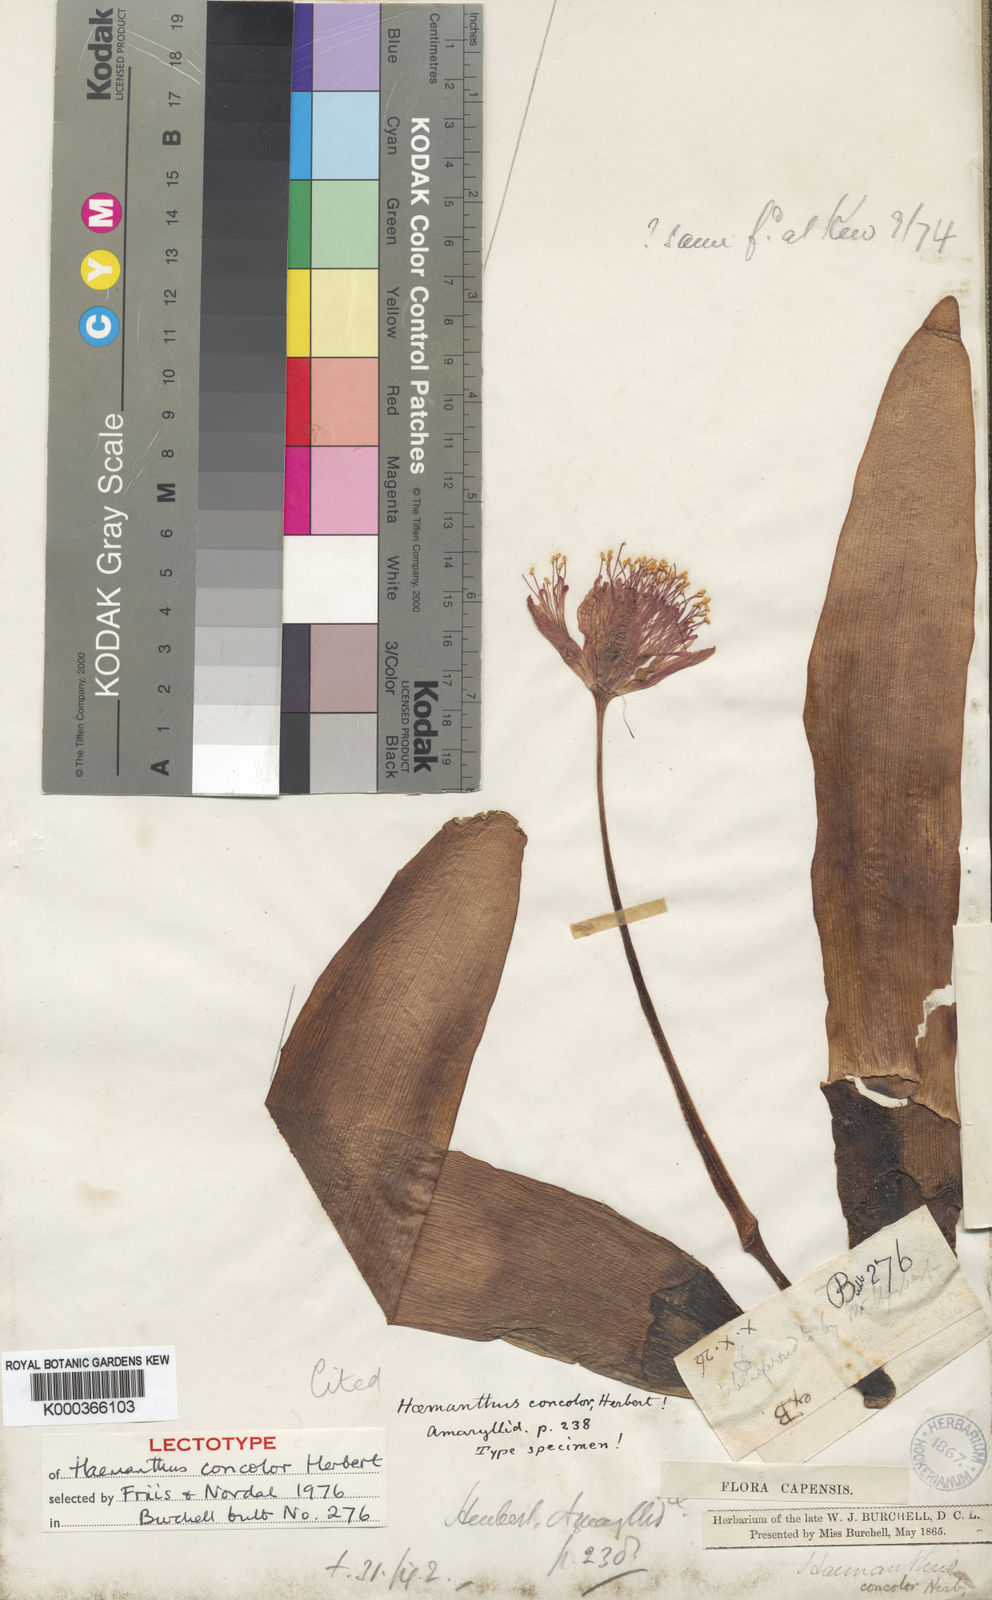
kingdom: Plantae
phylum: Tracheophyta
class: Liliopsida
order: Asparagales
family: Amaryllidaceae
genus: Haemanthus
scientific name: Haemanthus coccineus
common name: Cape-tulip
